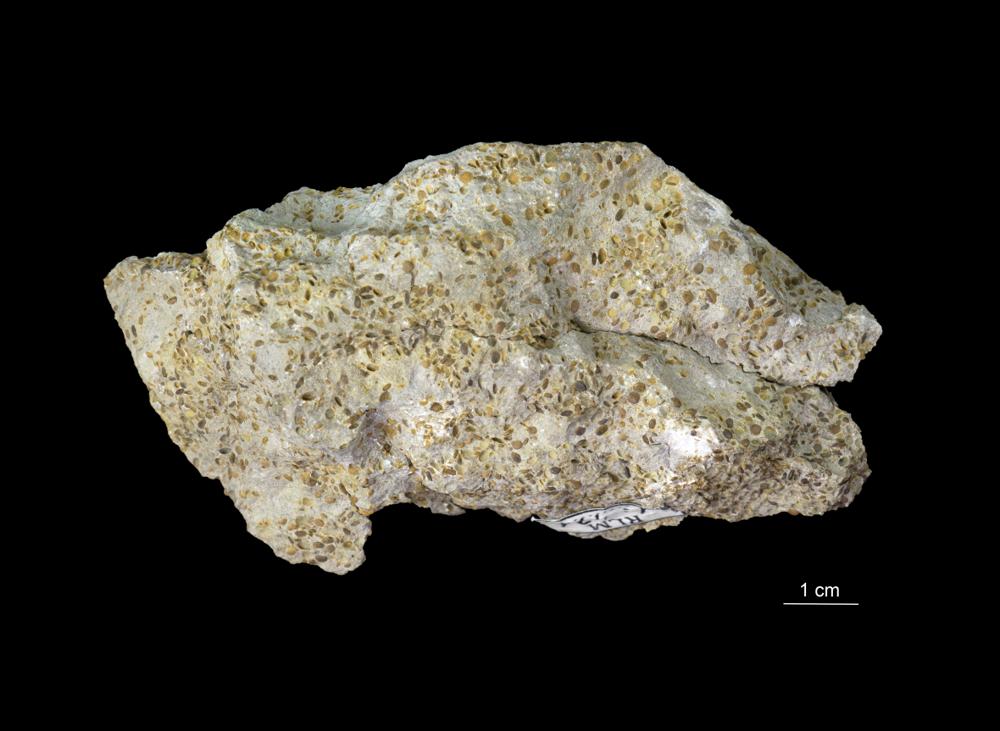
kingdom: Animalia
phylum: Arthropoda
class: Trilobita
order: Phacopida
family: Pterygometopidae
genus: Estoniops
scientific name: Estoniops panderi
